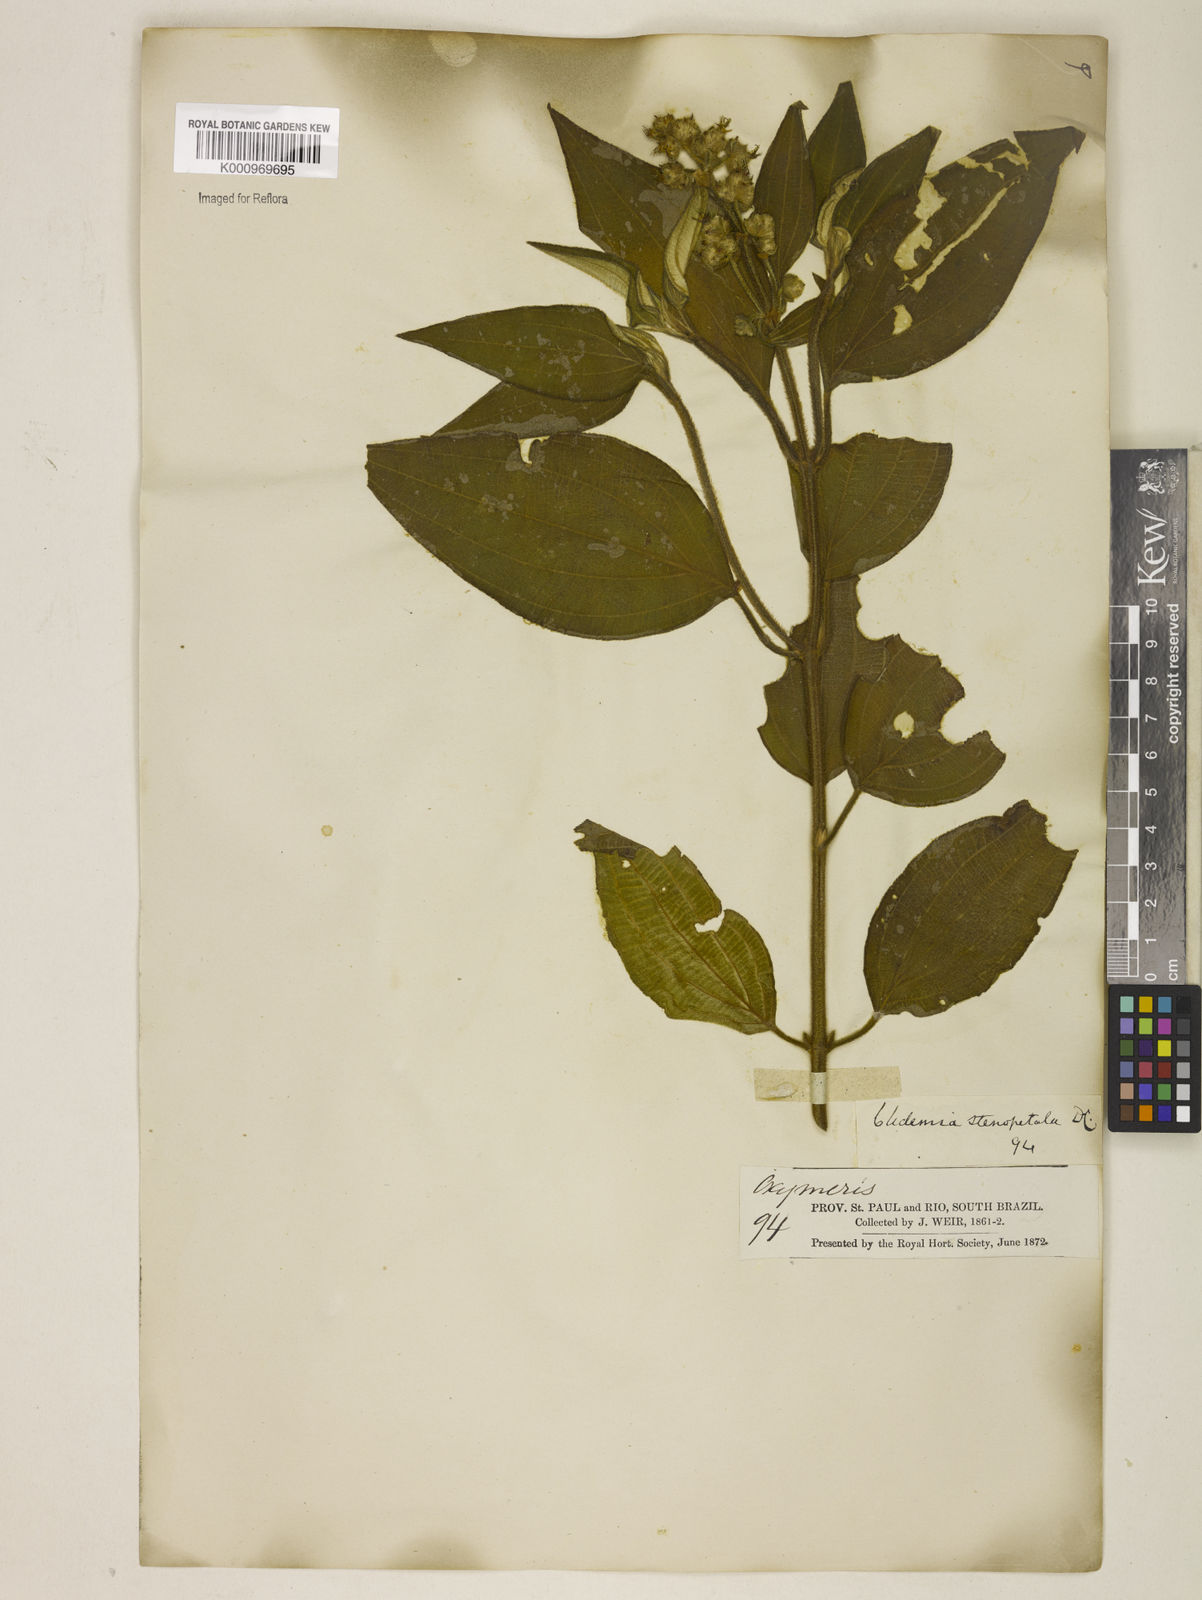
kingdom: Plantae
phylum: Tracheophyta
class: Magnoliopsida
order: Myrtales
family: Melastomataceae
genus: Miconia
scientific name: Miconia melastomoides
